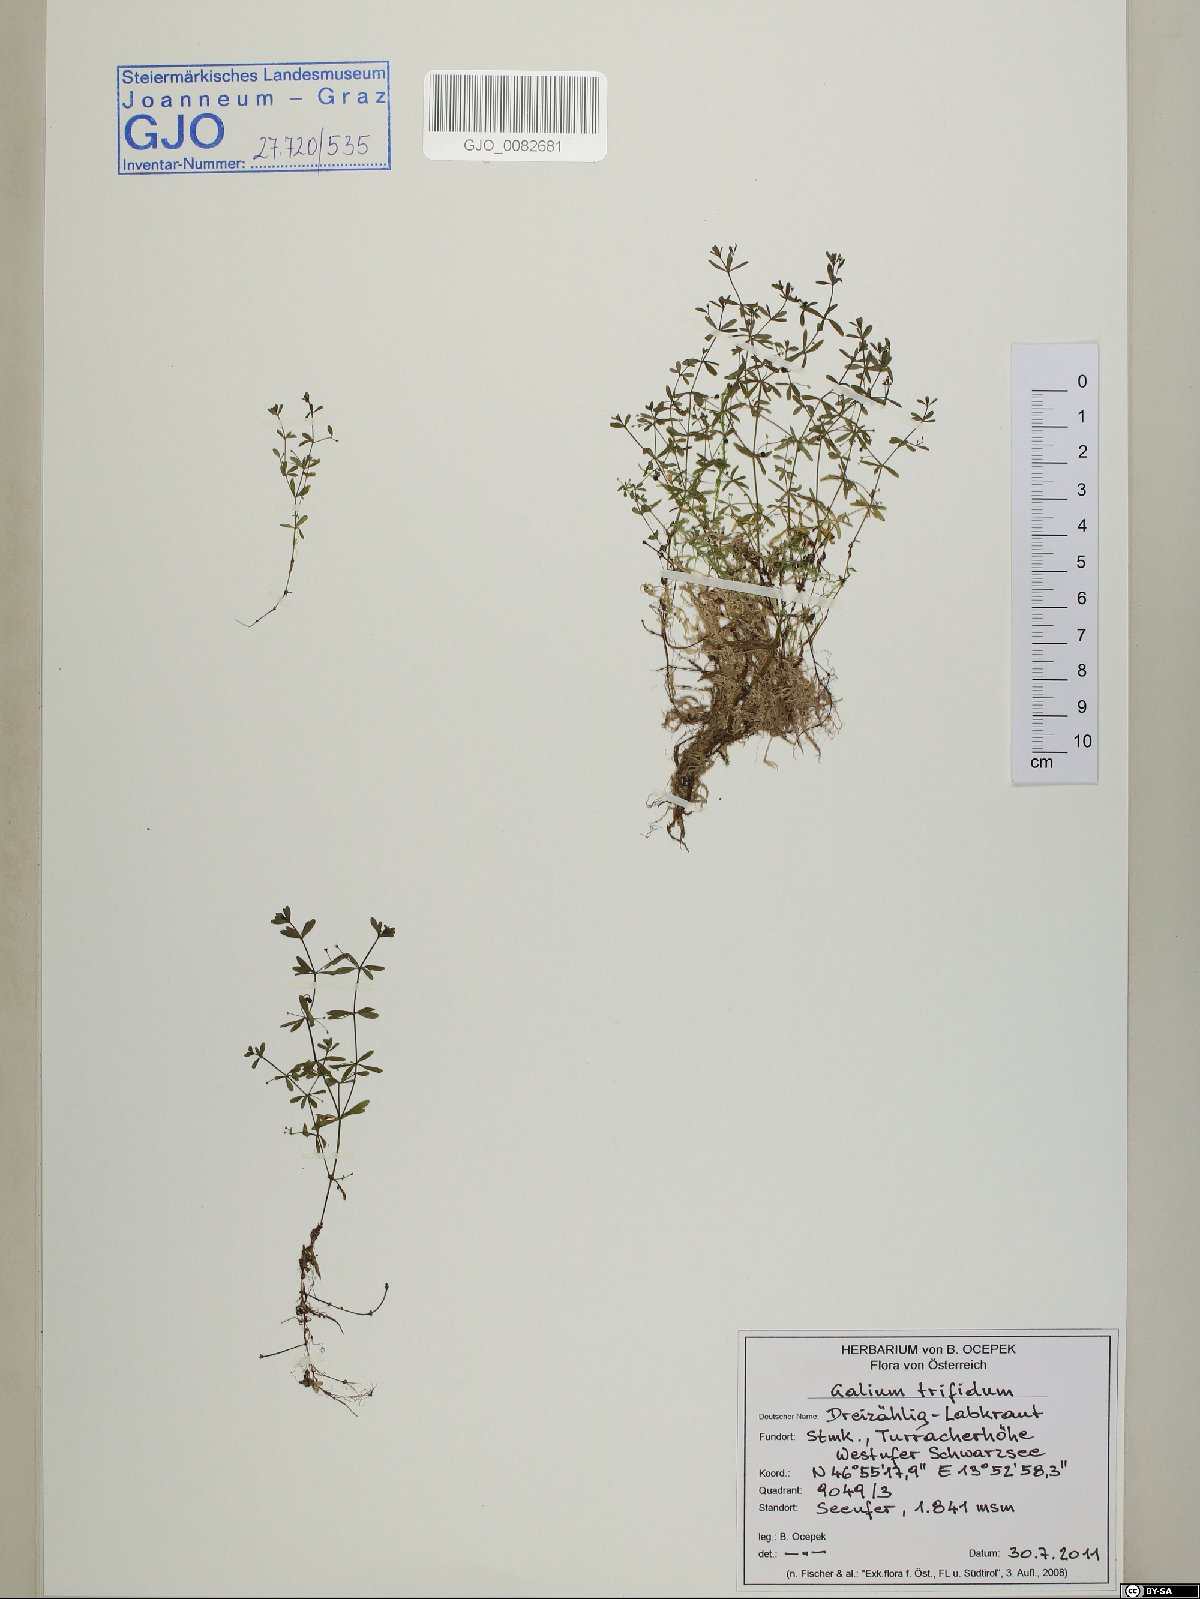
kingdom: Plantae
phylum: Tracheophyta
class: Magnoliopsida
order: Gentianales
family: Rubiaceae
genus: Galium
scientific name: Galium trifidum
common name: Small bedstraw
